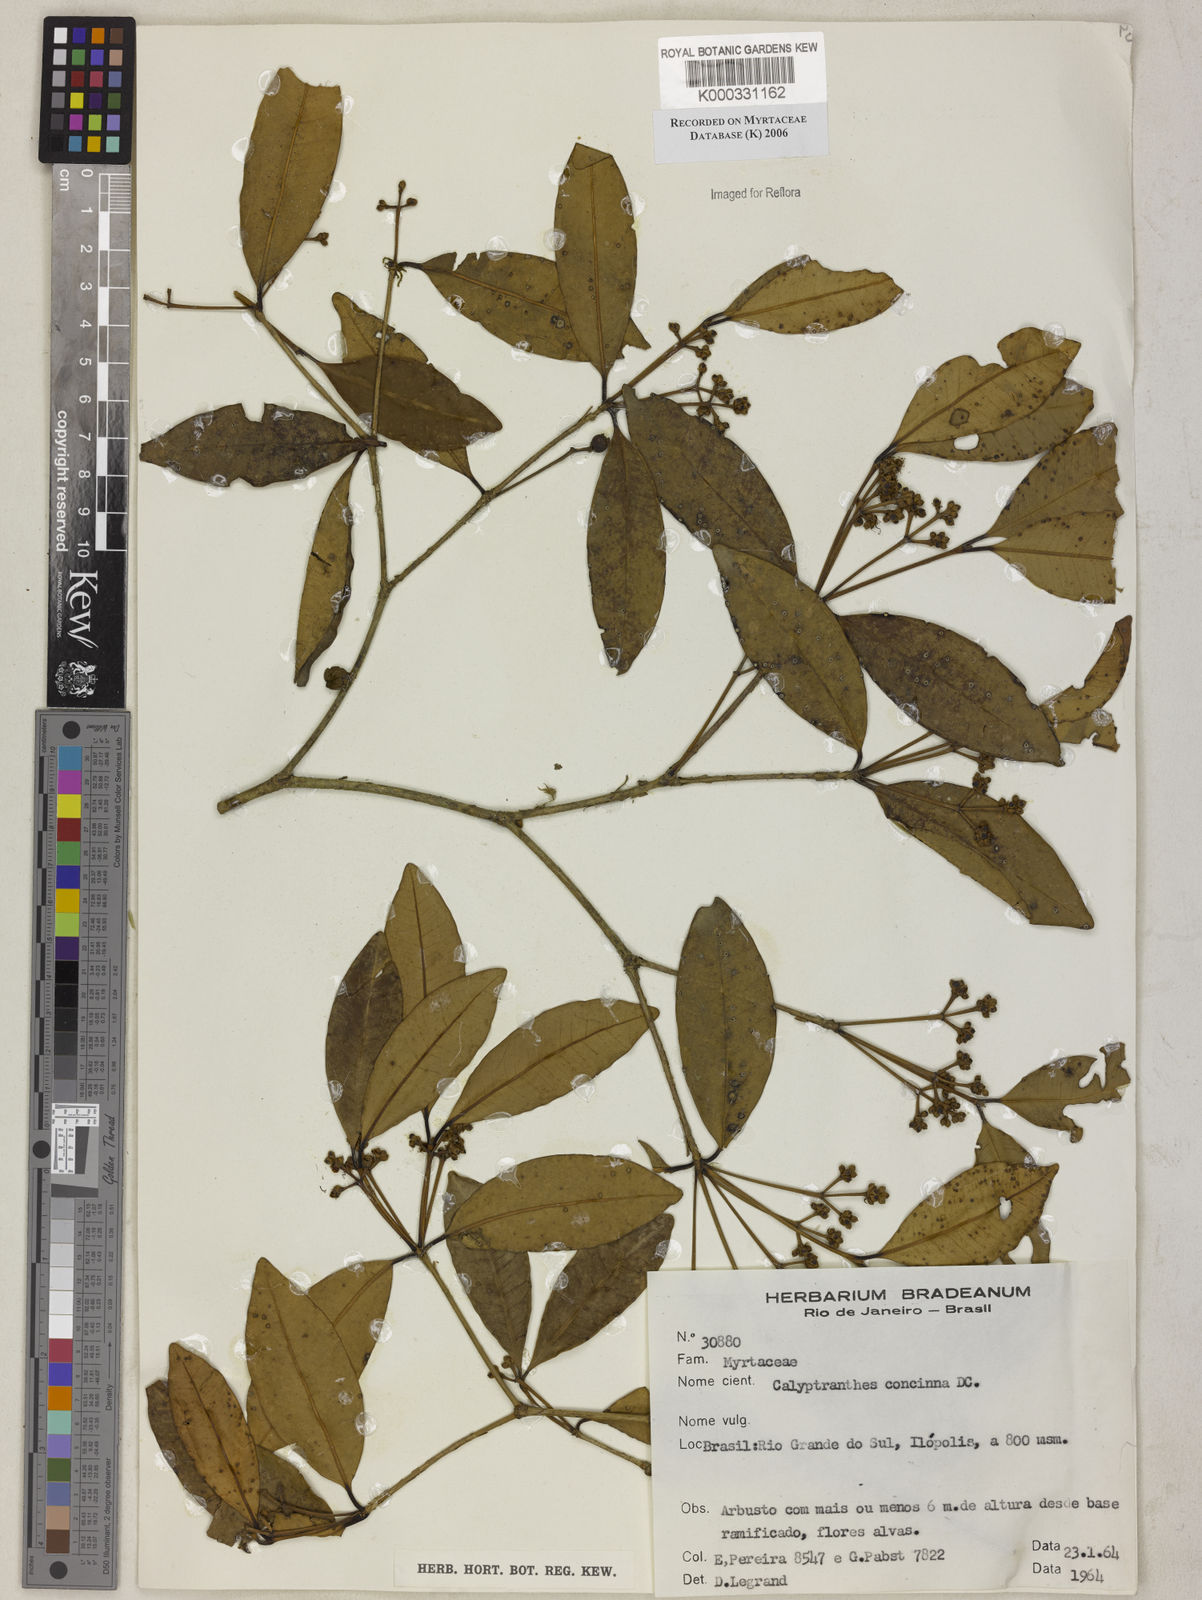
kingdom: Plantae
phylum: Tracheophyta
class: Magnoliopsida
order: Myrtales
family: Myrtaceae
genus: Myrcia
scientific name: Myrcia cruciflora
